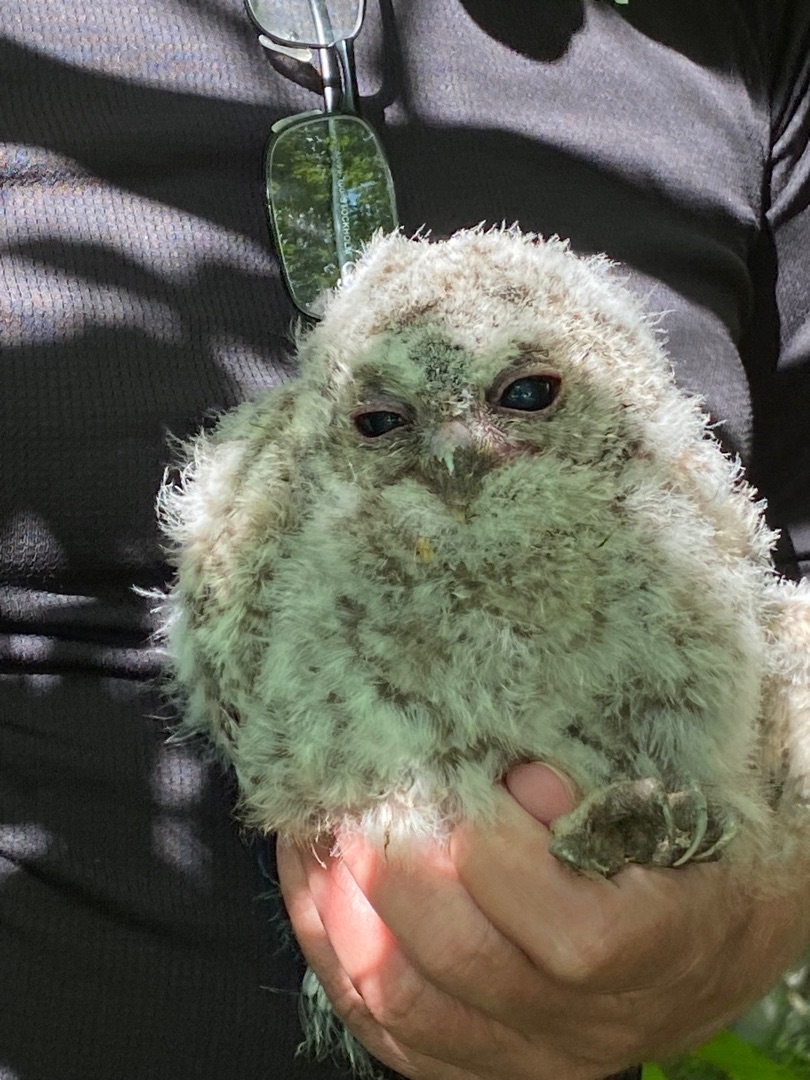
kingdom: Animalia
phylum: Chordata
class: Aves
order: Strigiformes
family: Strigidae
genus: Strix
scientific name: Strix aluco
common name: Natugle
